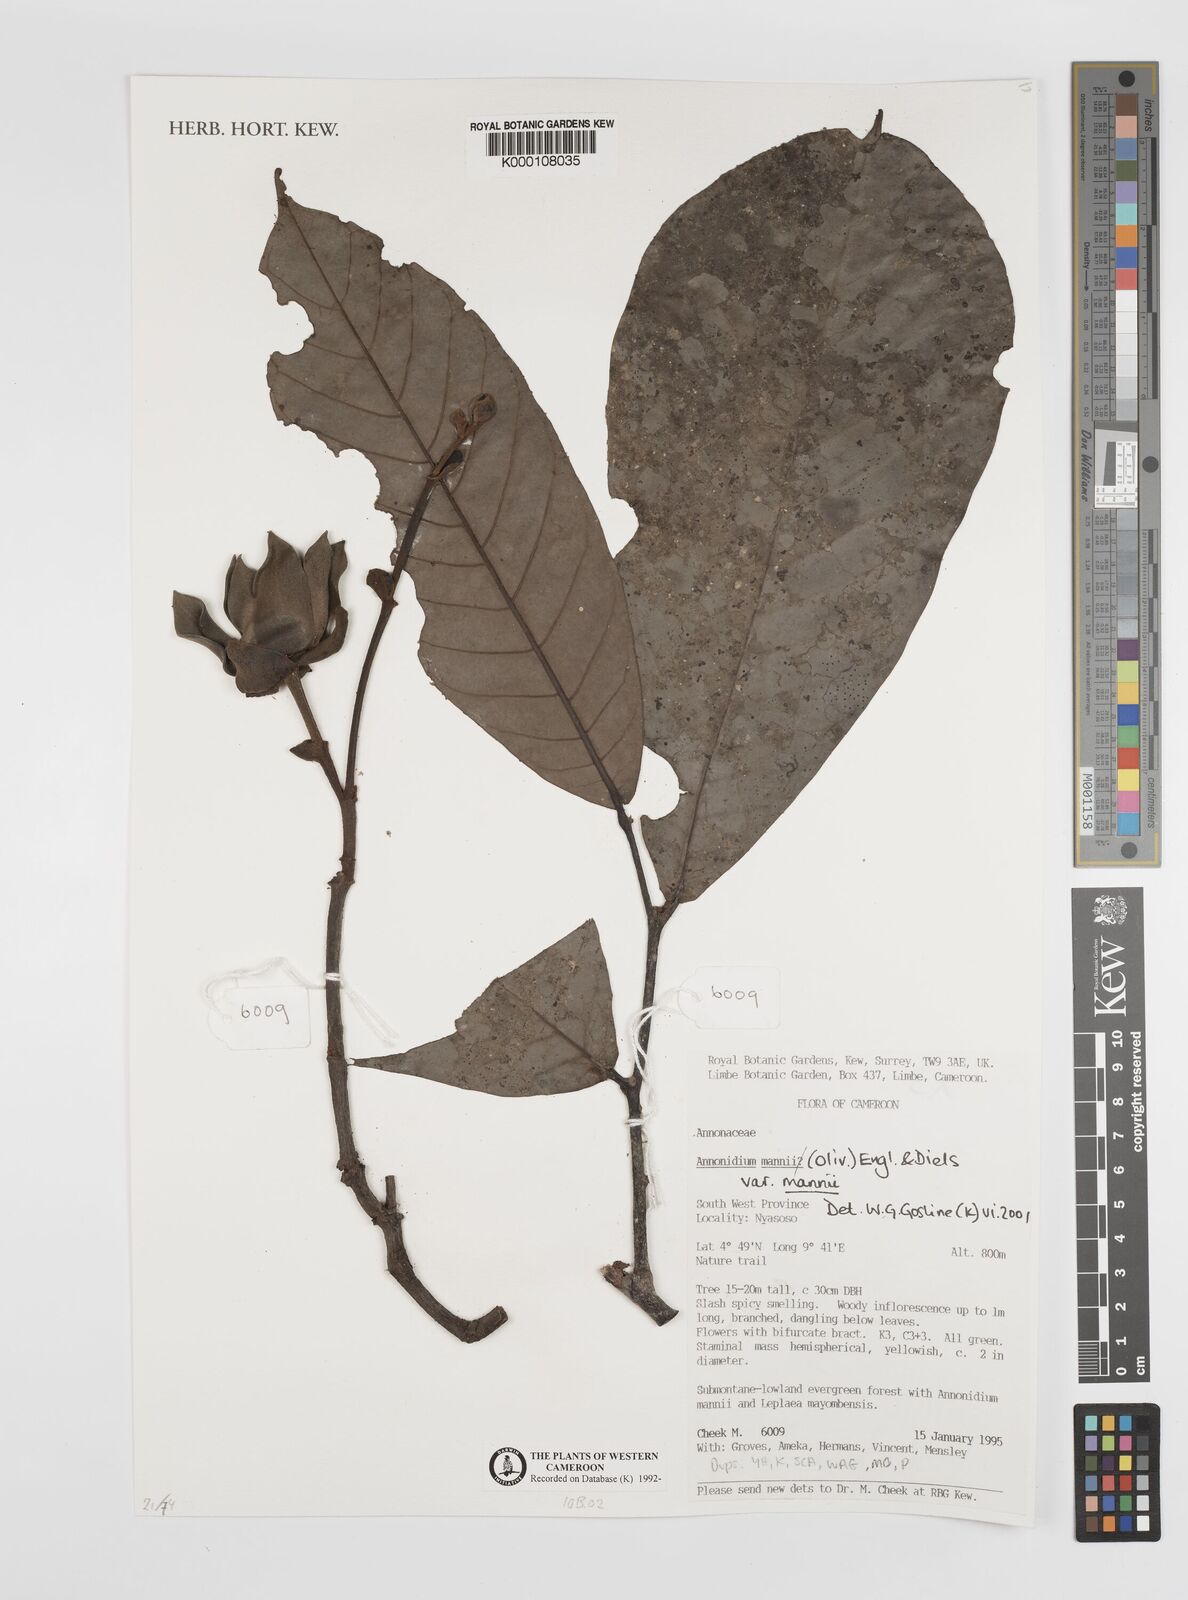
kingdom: Plantae
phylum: Tracheophyta
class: Magnoliopsida
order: Magnoliales
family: Annonaceae
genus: Anonidium
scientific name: Anonidium mannii
